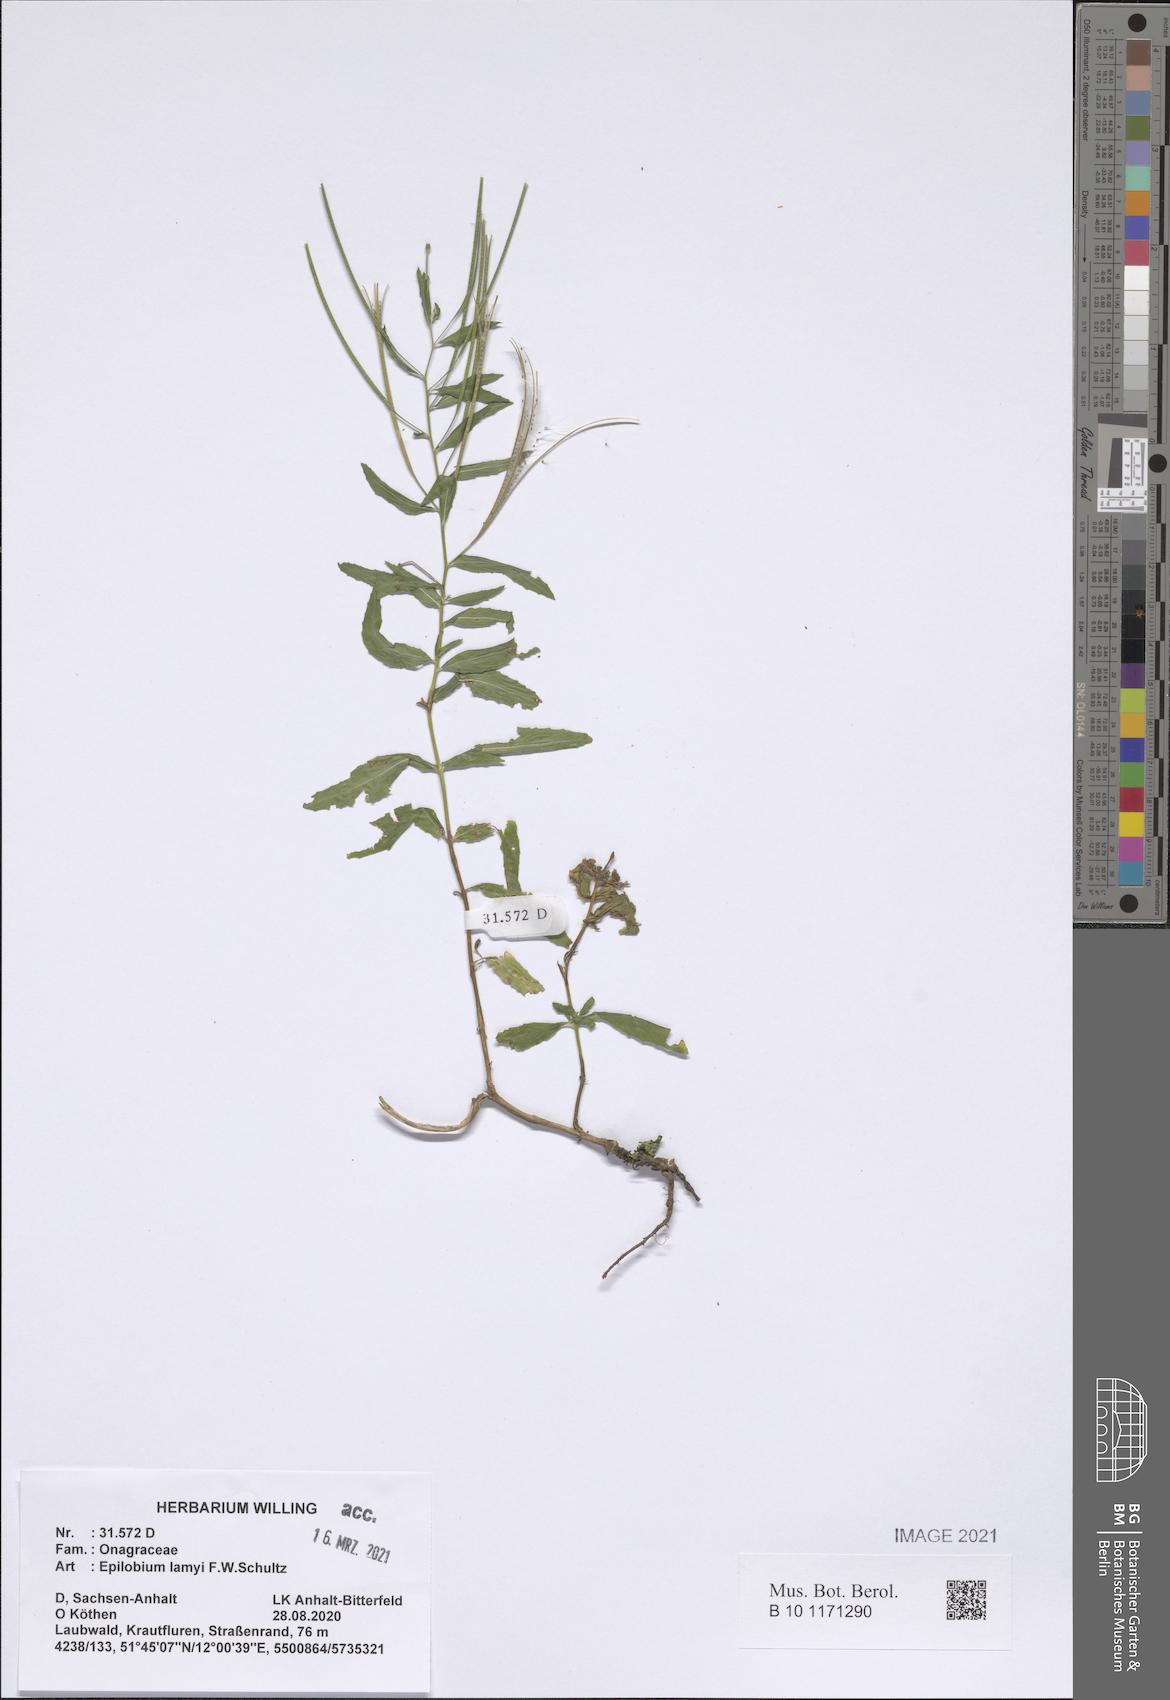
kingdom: Plantae
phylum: Tracheophyta
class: Magnoliopsida
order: Myrtales
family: Onagraceae
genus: Epilobium
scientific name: Epilobium lamyi
